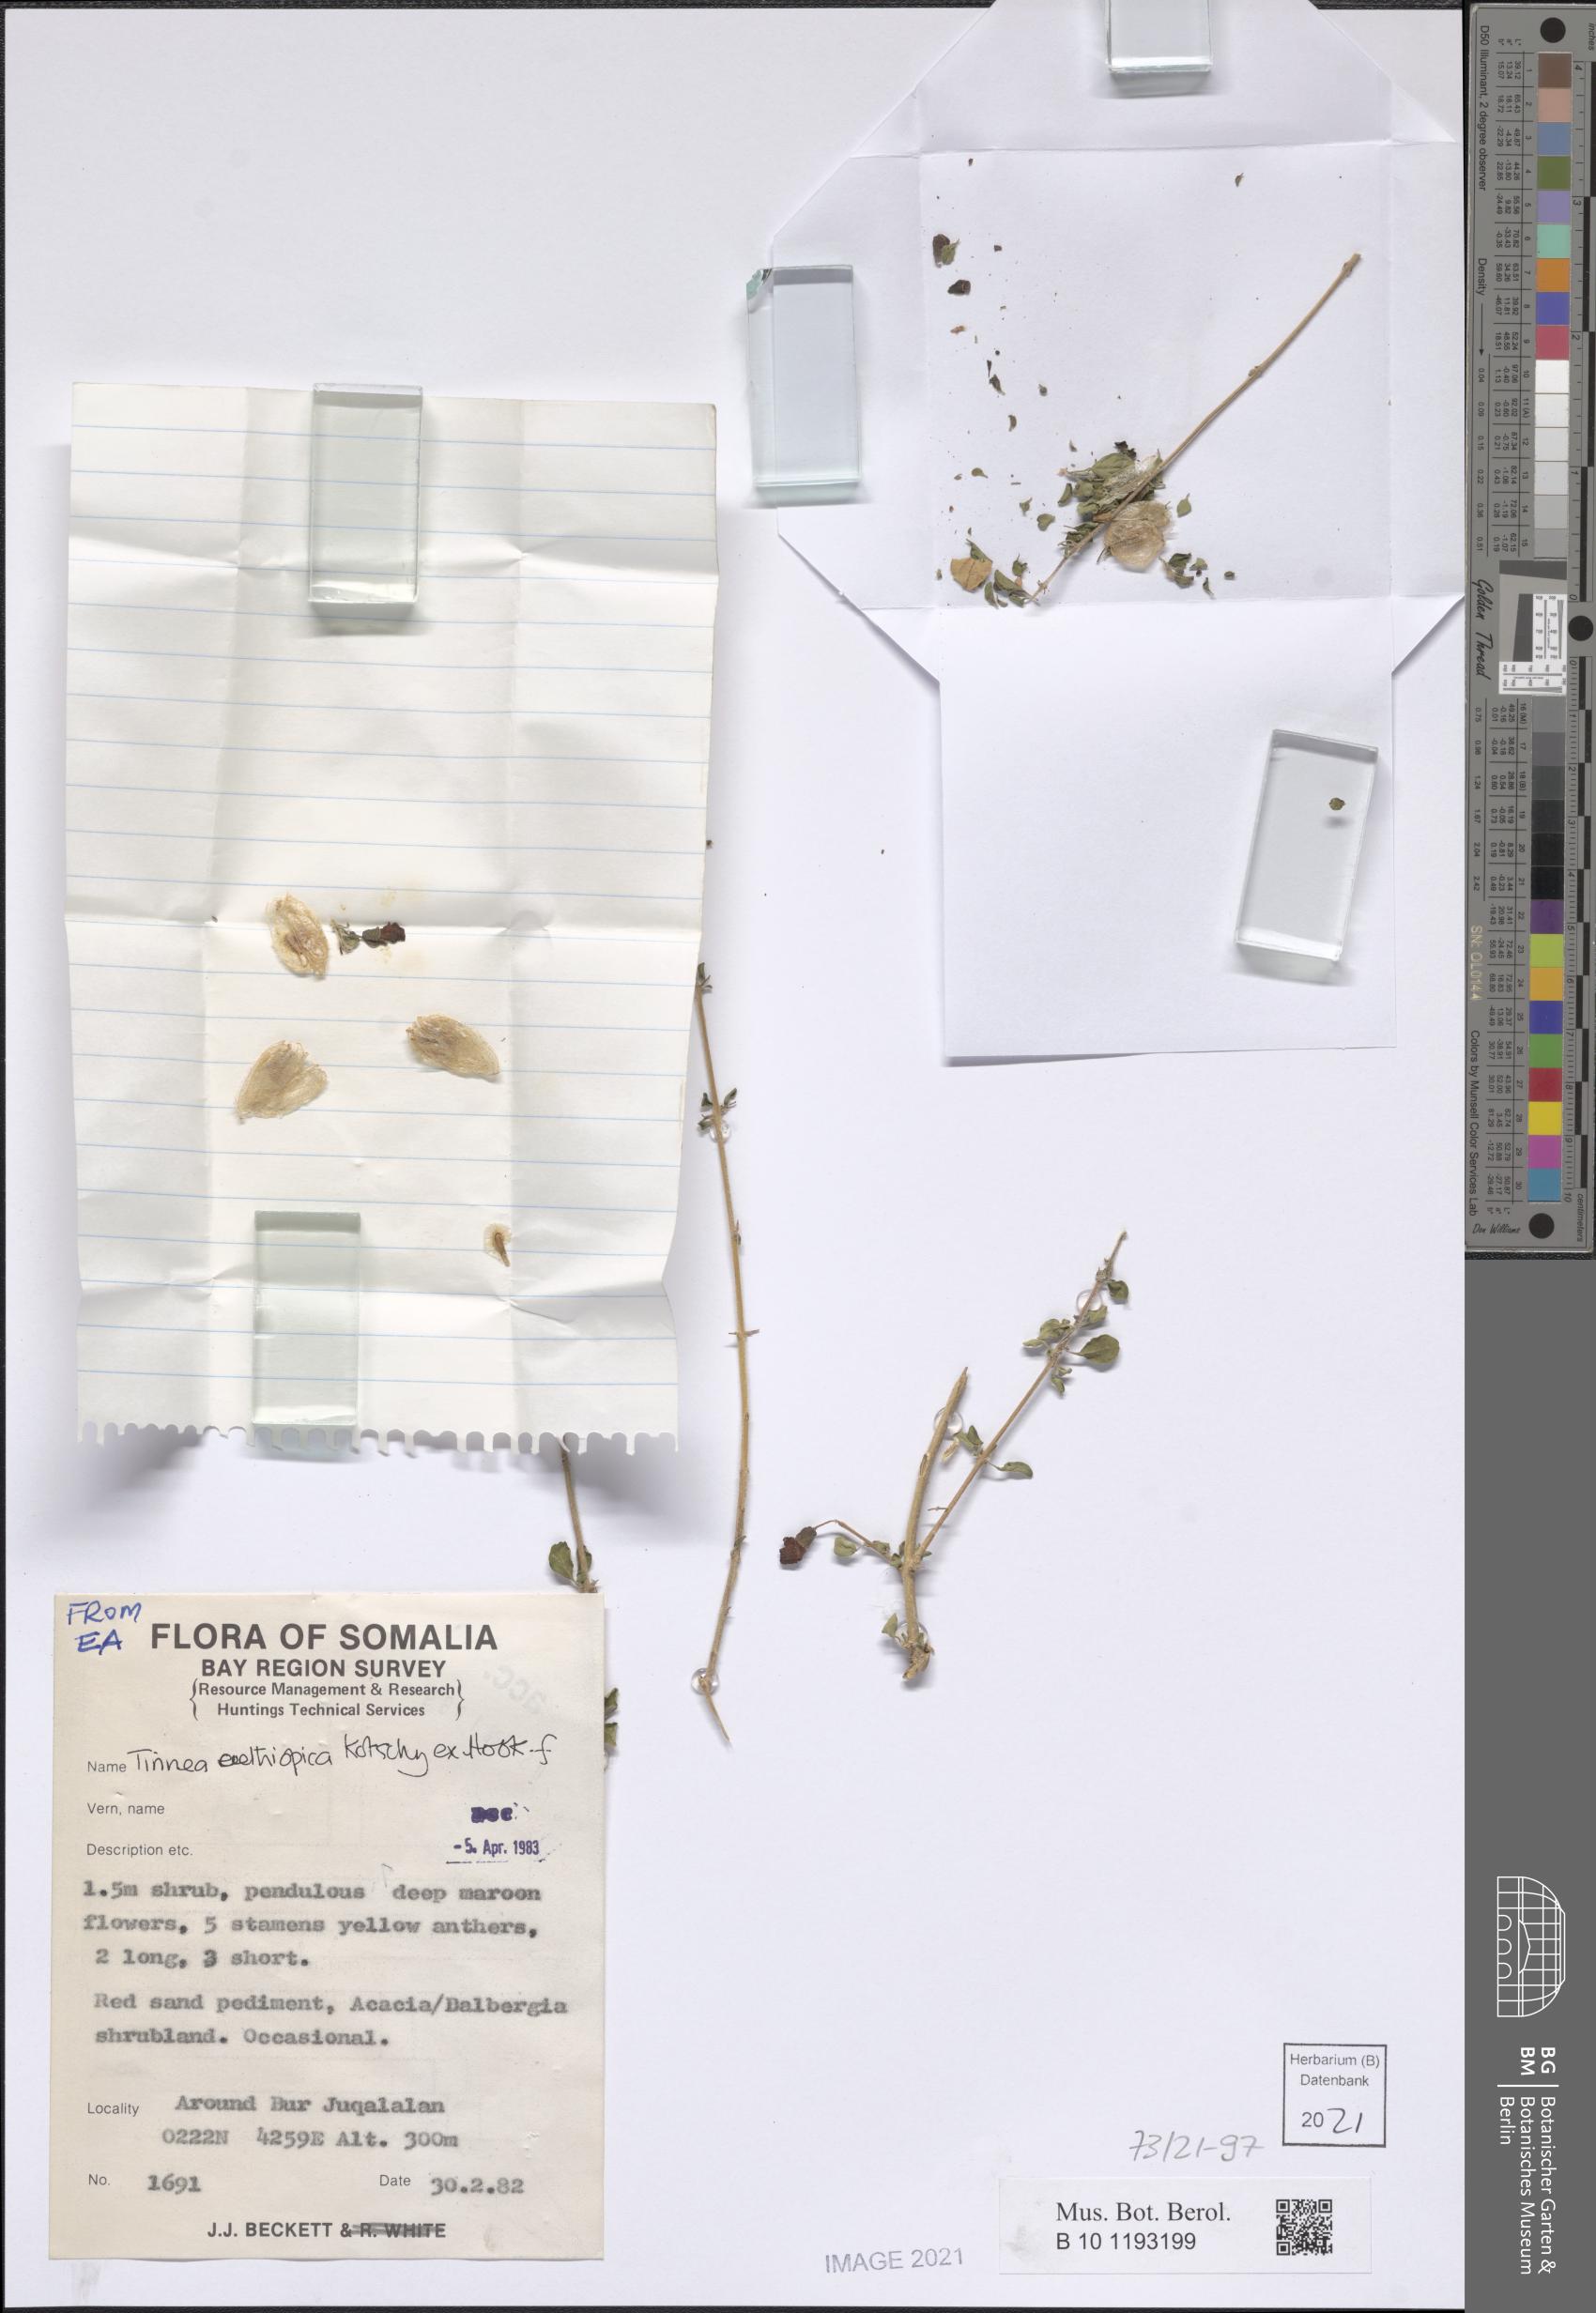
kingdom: Plantae
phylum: Tracheophyta
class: Magnoliopsida
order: Lamiales
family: Lamiaceae
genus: Tinnea
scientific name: Tinnea aethiopica
